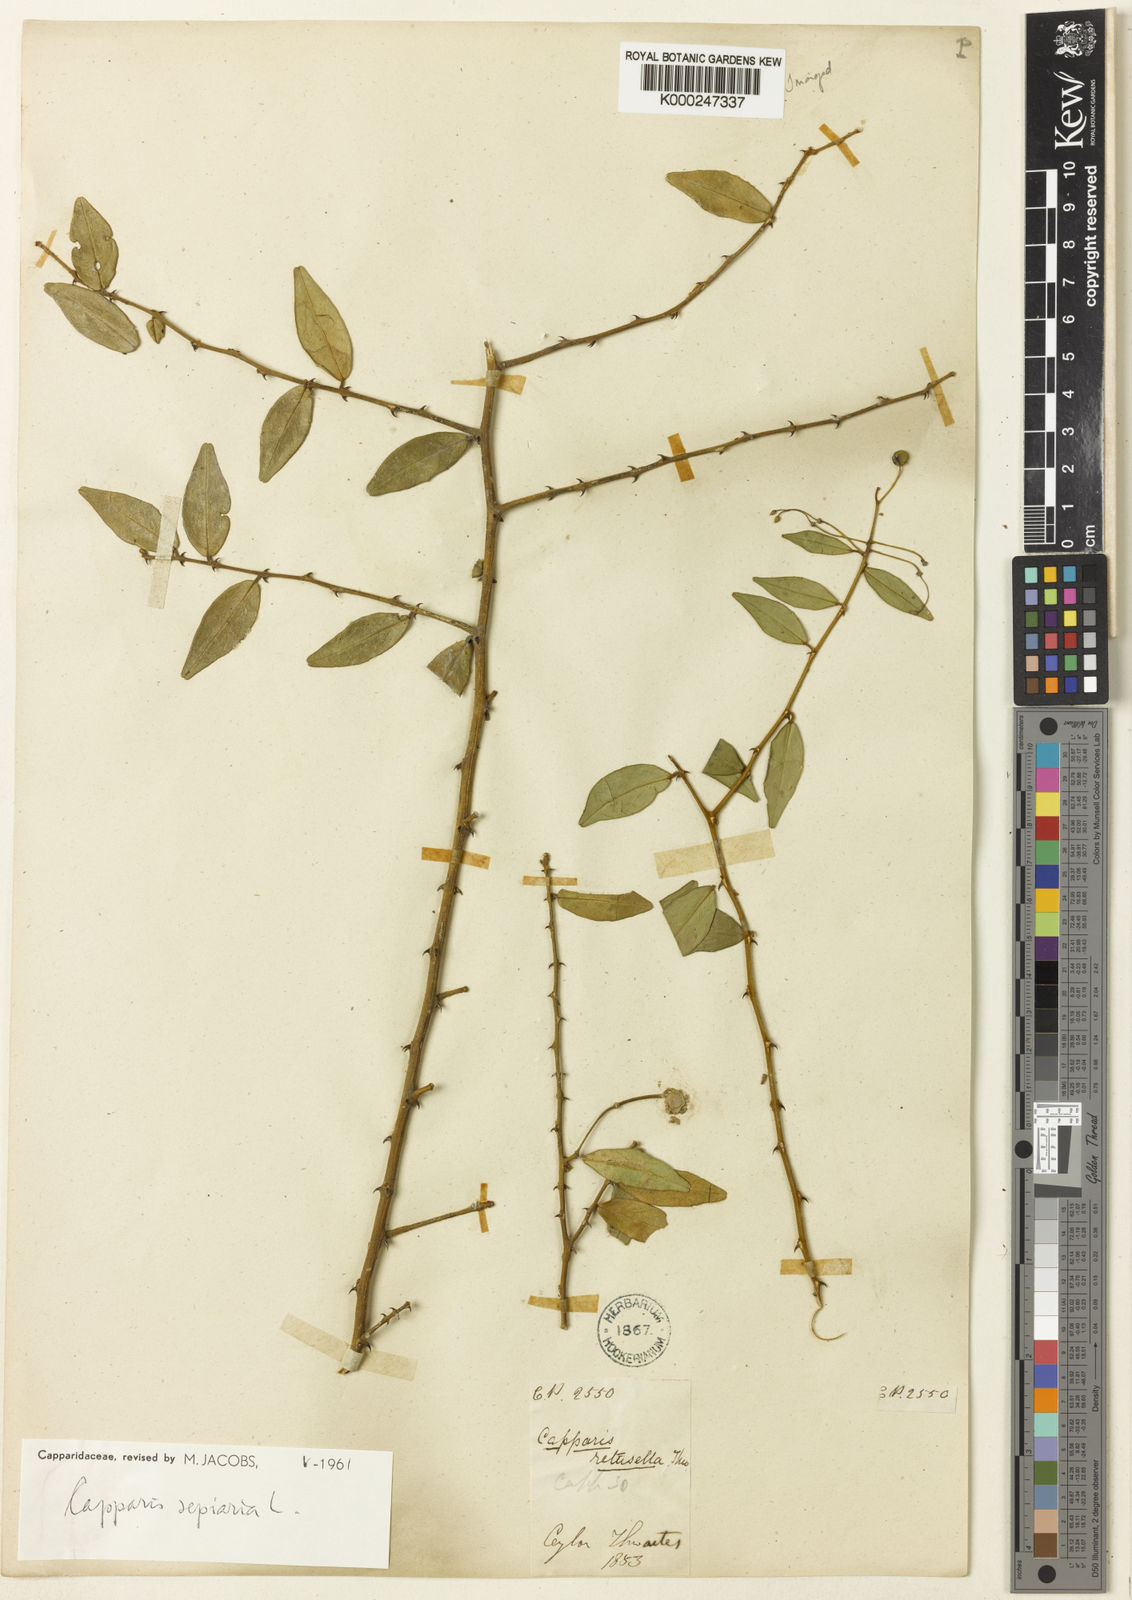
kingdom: Plantae
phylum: Tracheophyta
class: Magnoliopsida
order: Brassicales
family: Capparaceae
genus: Capparis
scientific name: Capparis sepiaria
